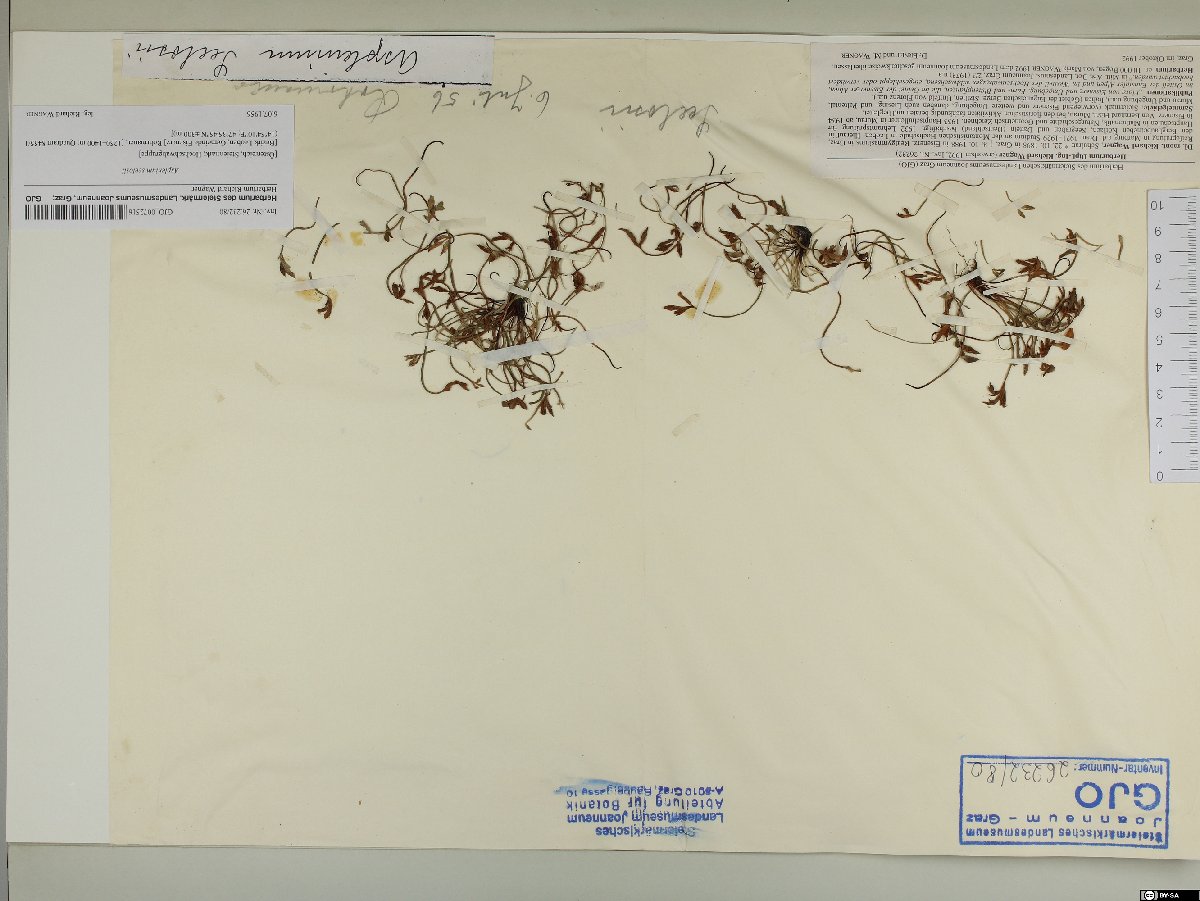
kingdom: Plantae
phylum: Tracheophyta
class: Polypodiopsida
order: Polypodiales
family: Aspleniaceae
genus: Asplenium
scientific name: Asplenium seelosii
